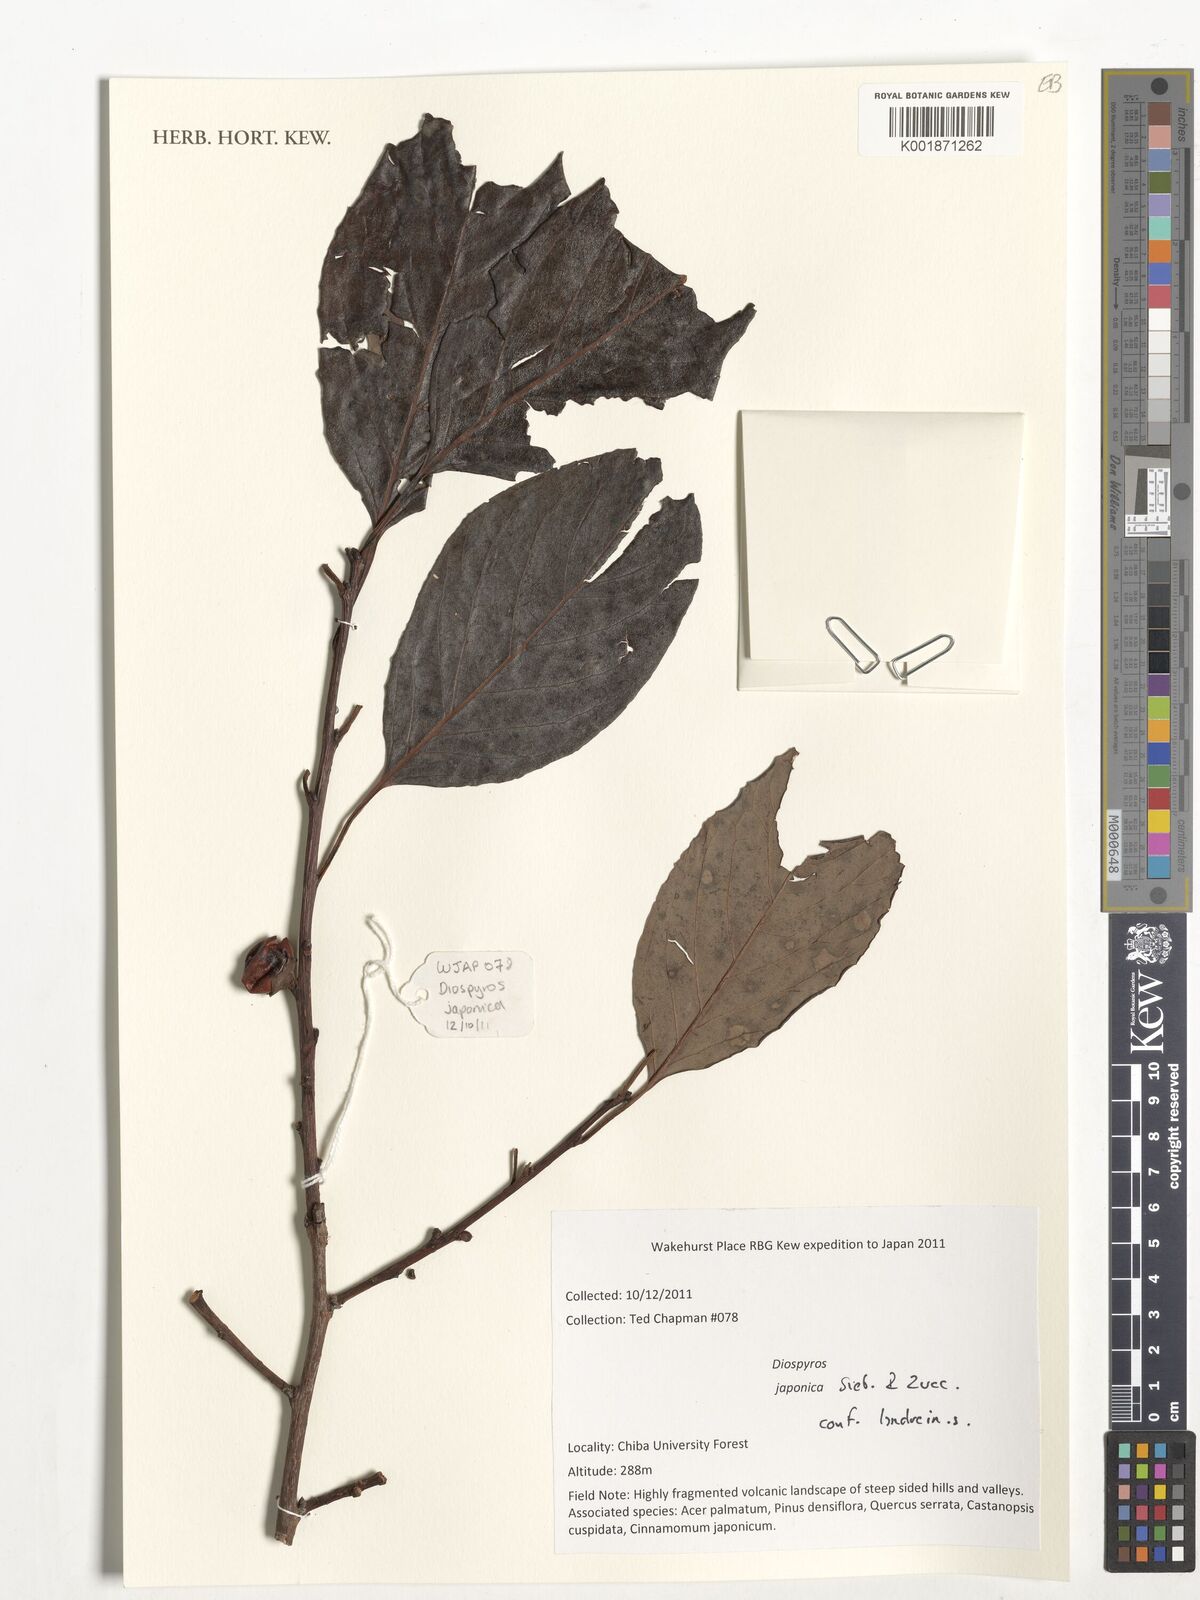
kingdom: Plantae
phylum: Tracheophyta
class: Magnoliopsida
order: Ericales
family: Ebenaceae
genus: Diospyros
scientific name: Diospyros japonica
